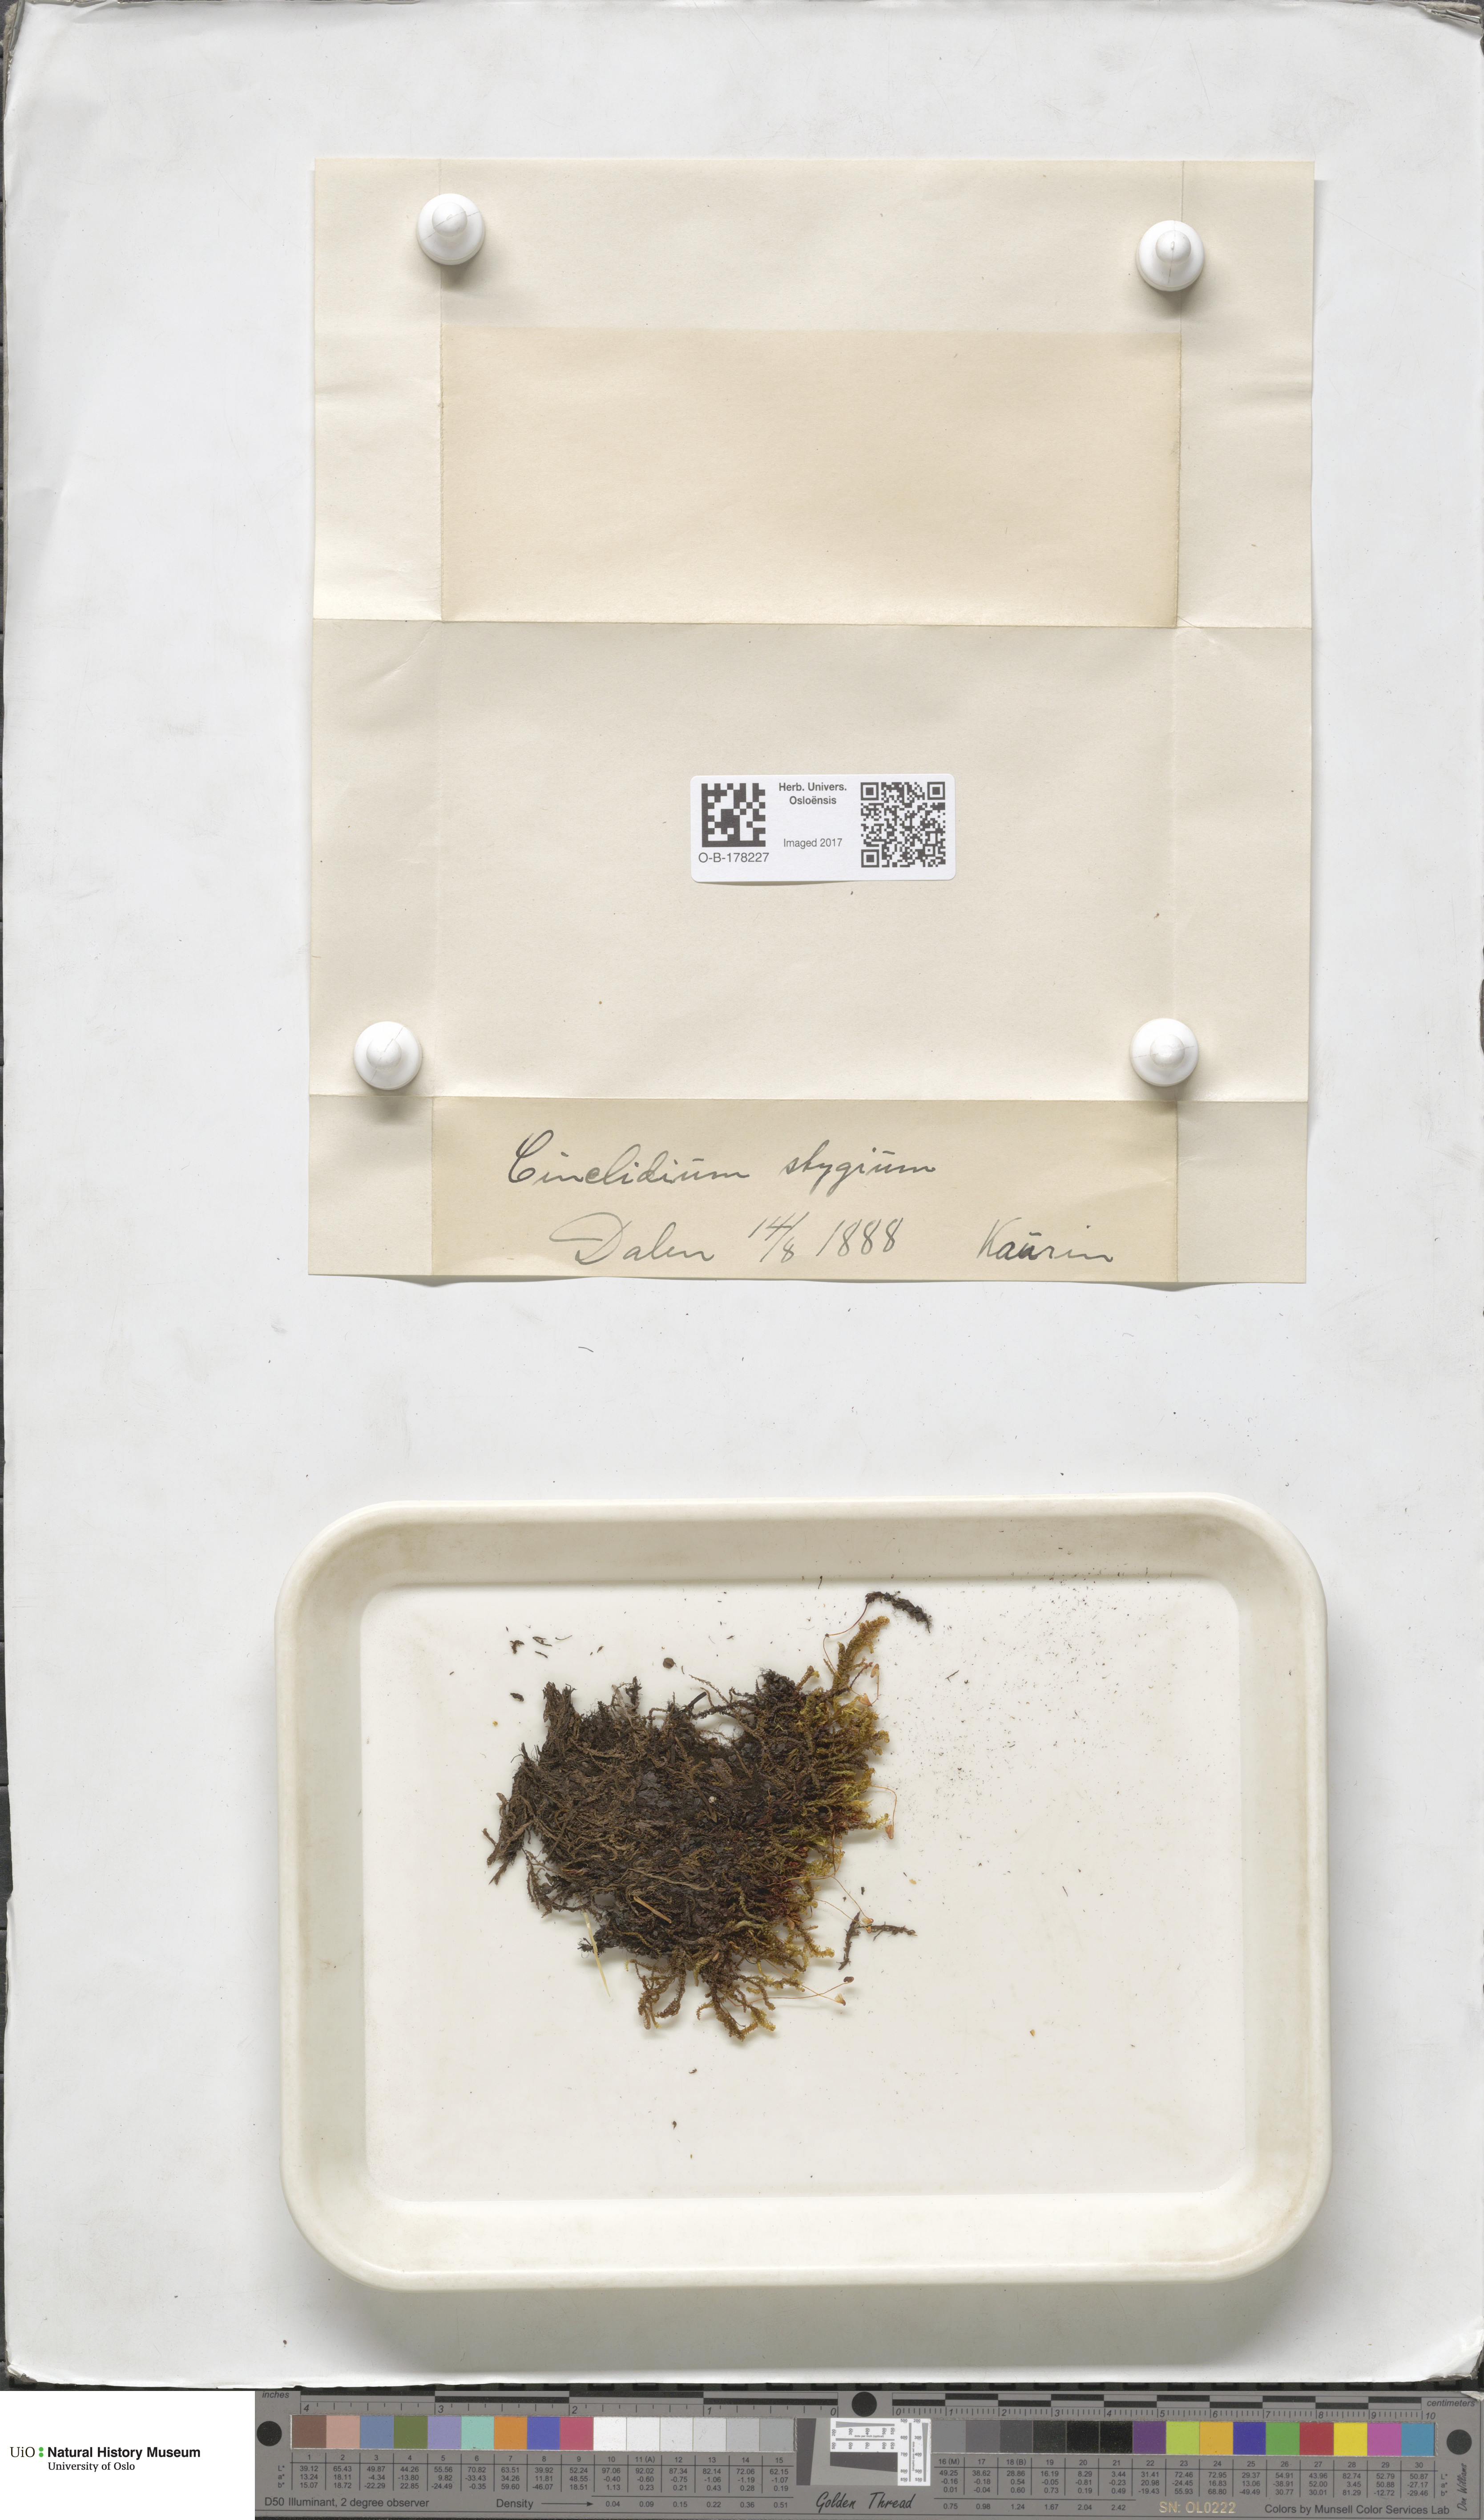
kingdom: Plantae
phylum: Bryophyta
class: Bryopsida
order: Bryales
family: Mniaceae
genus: Cinclidium
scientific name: Cinclidium stygium
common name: Sooty cupola moss
